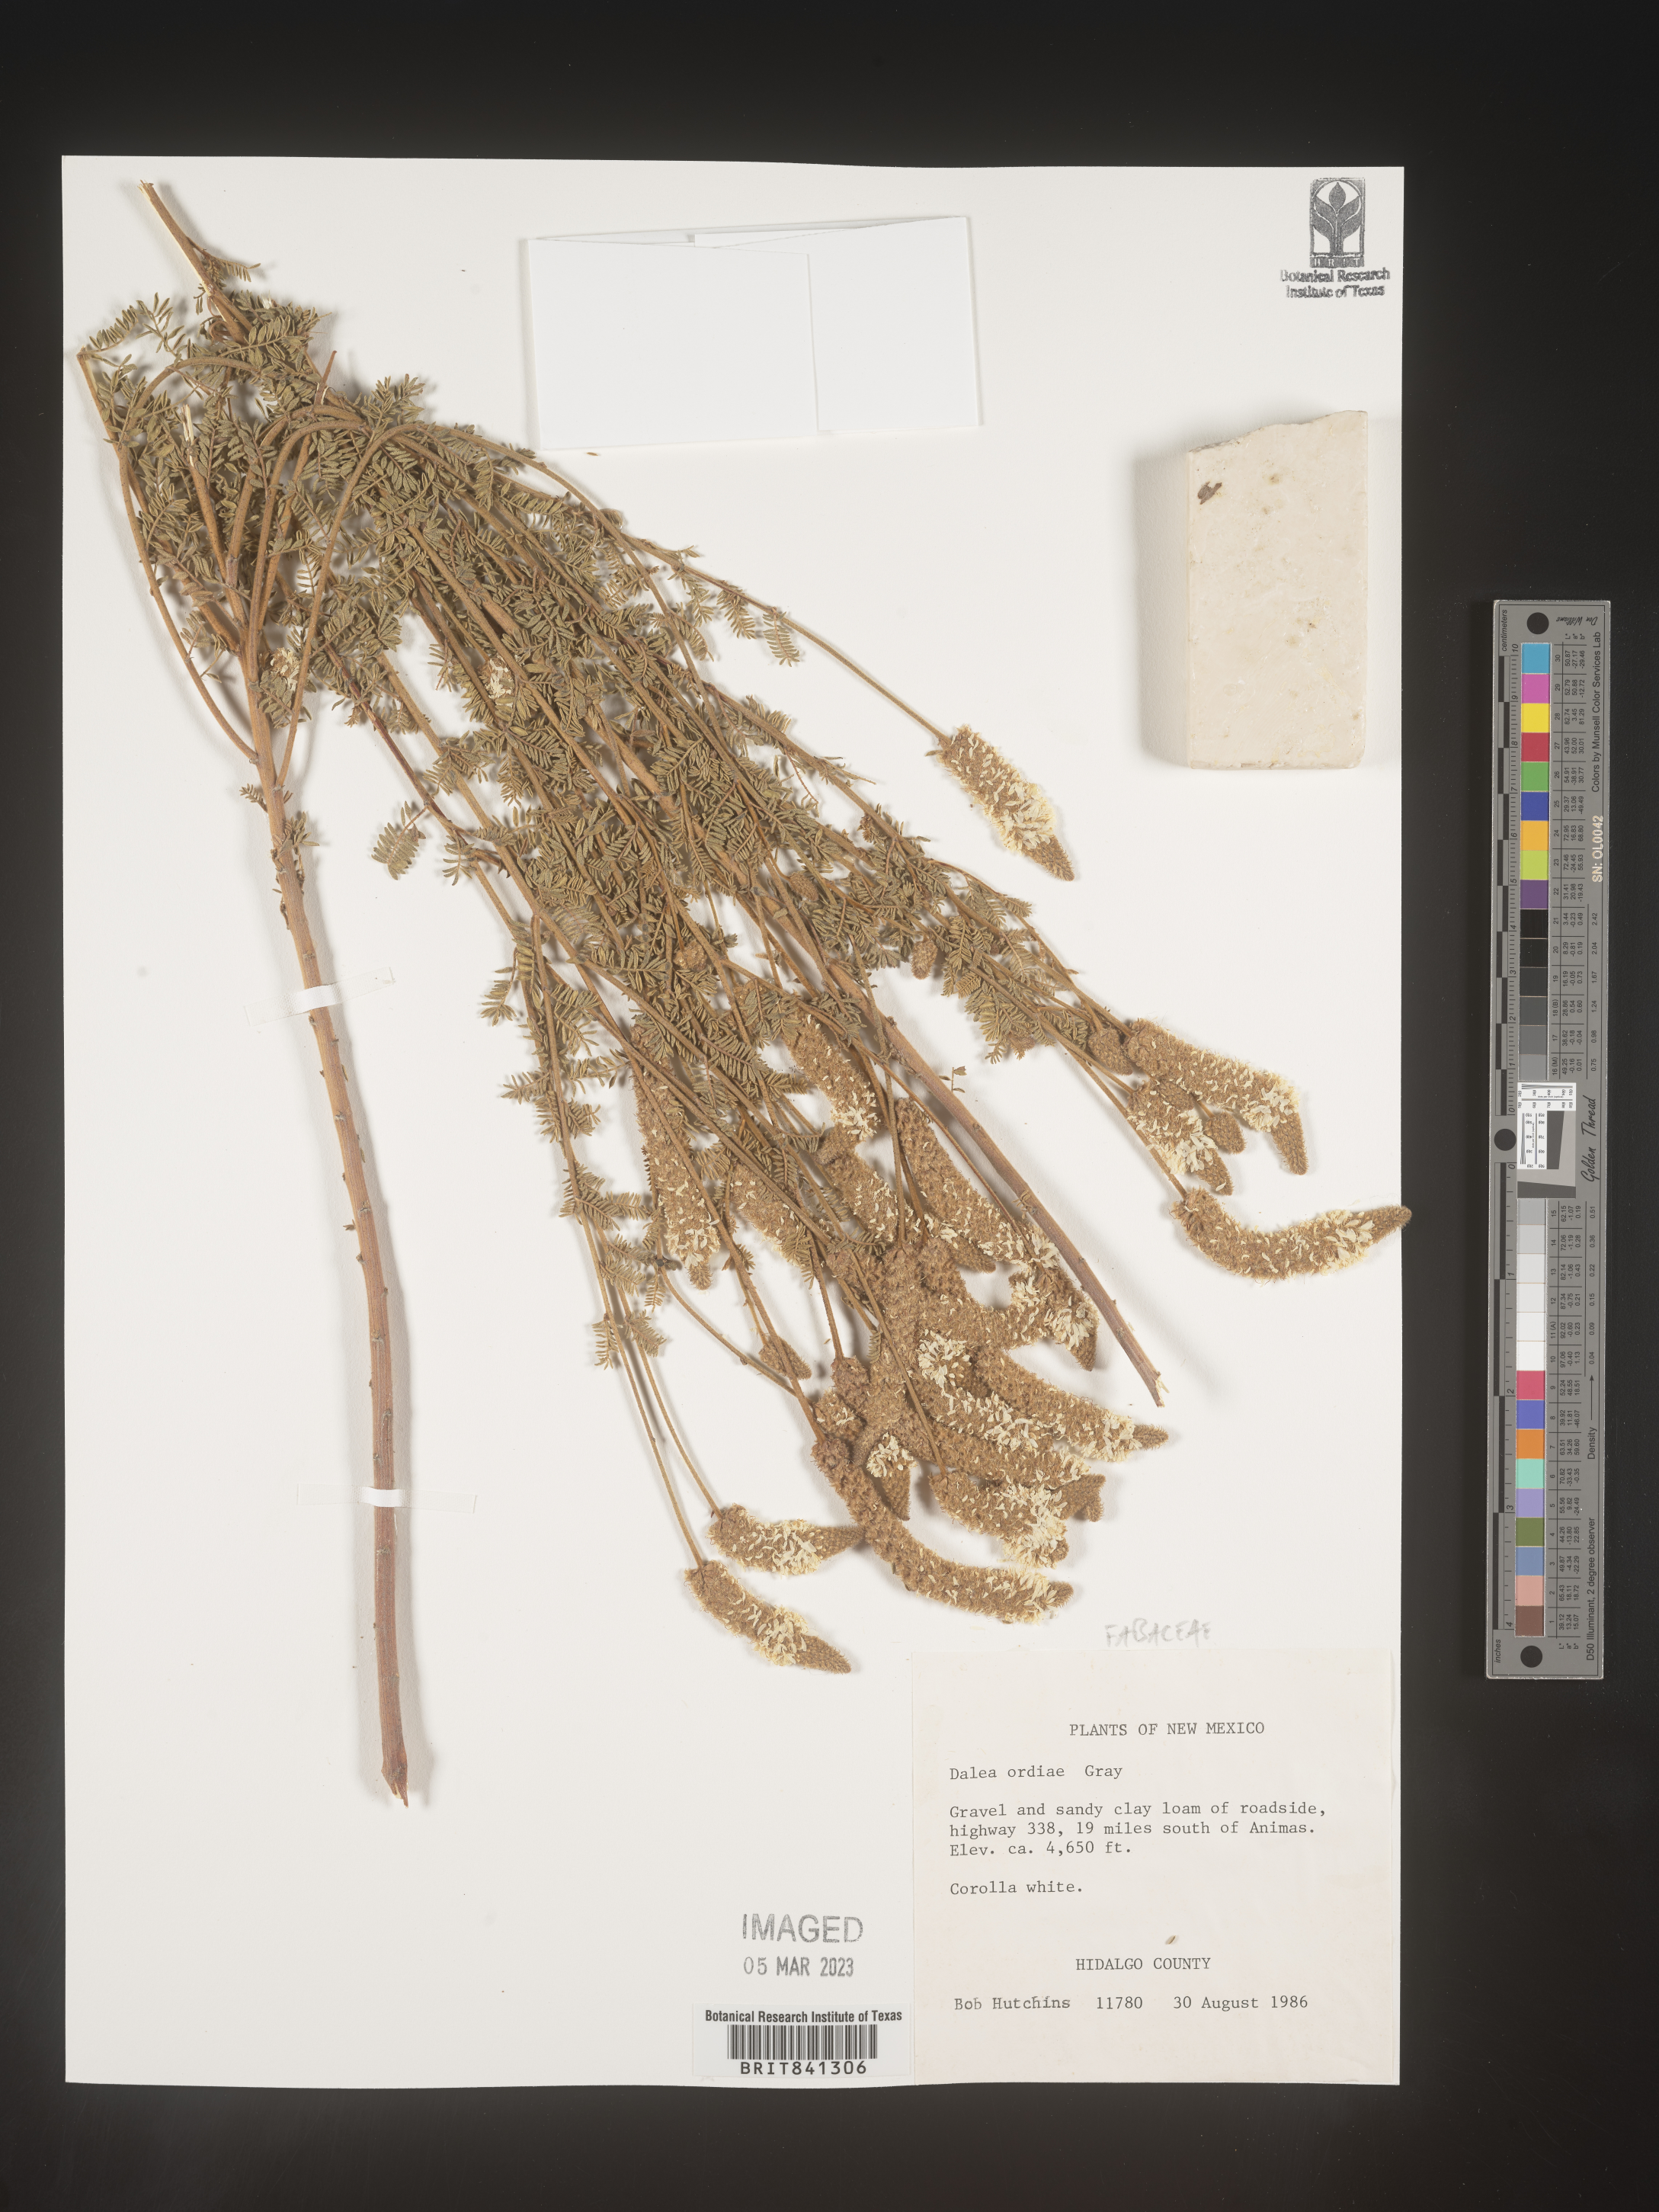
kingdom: Plantae
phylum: Tracheophyta
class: Magnoliopsida
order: Fabales
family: Fabaceae
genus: Dalea
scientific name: Dalea albiflora
